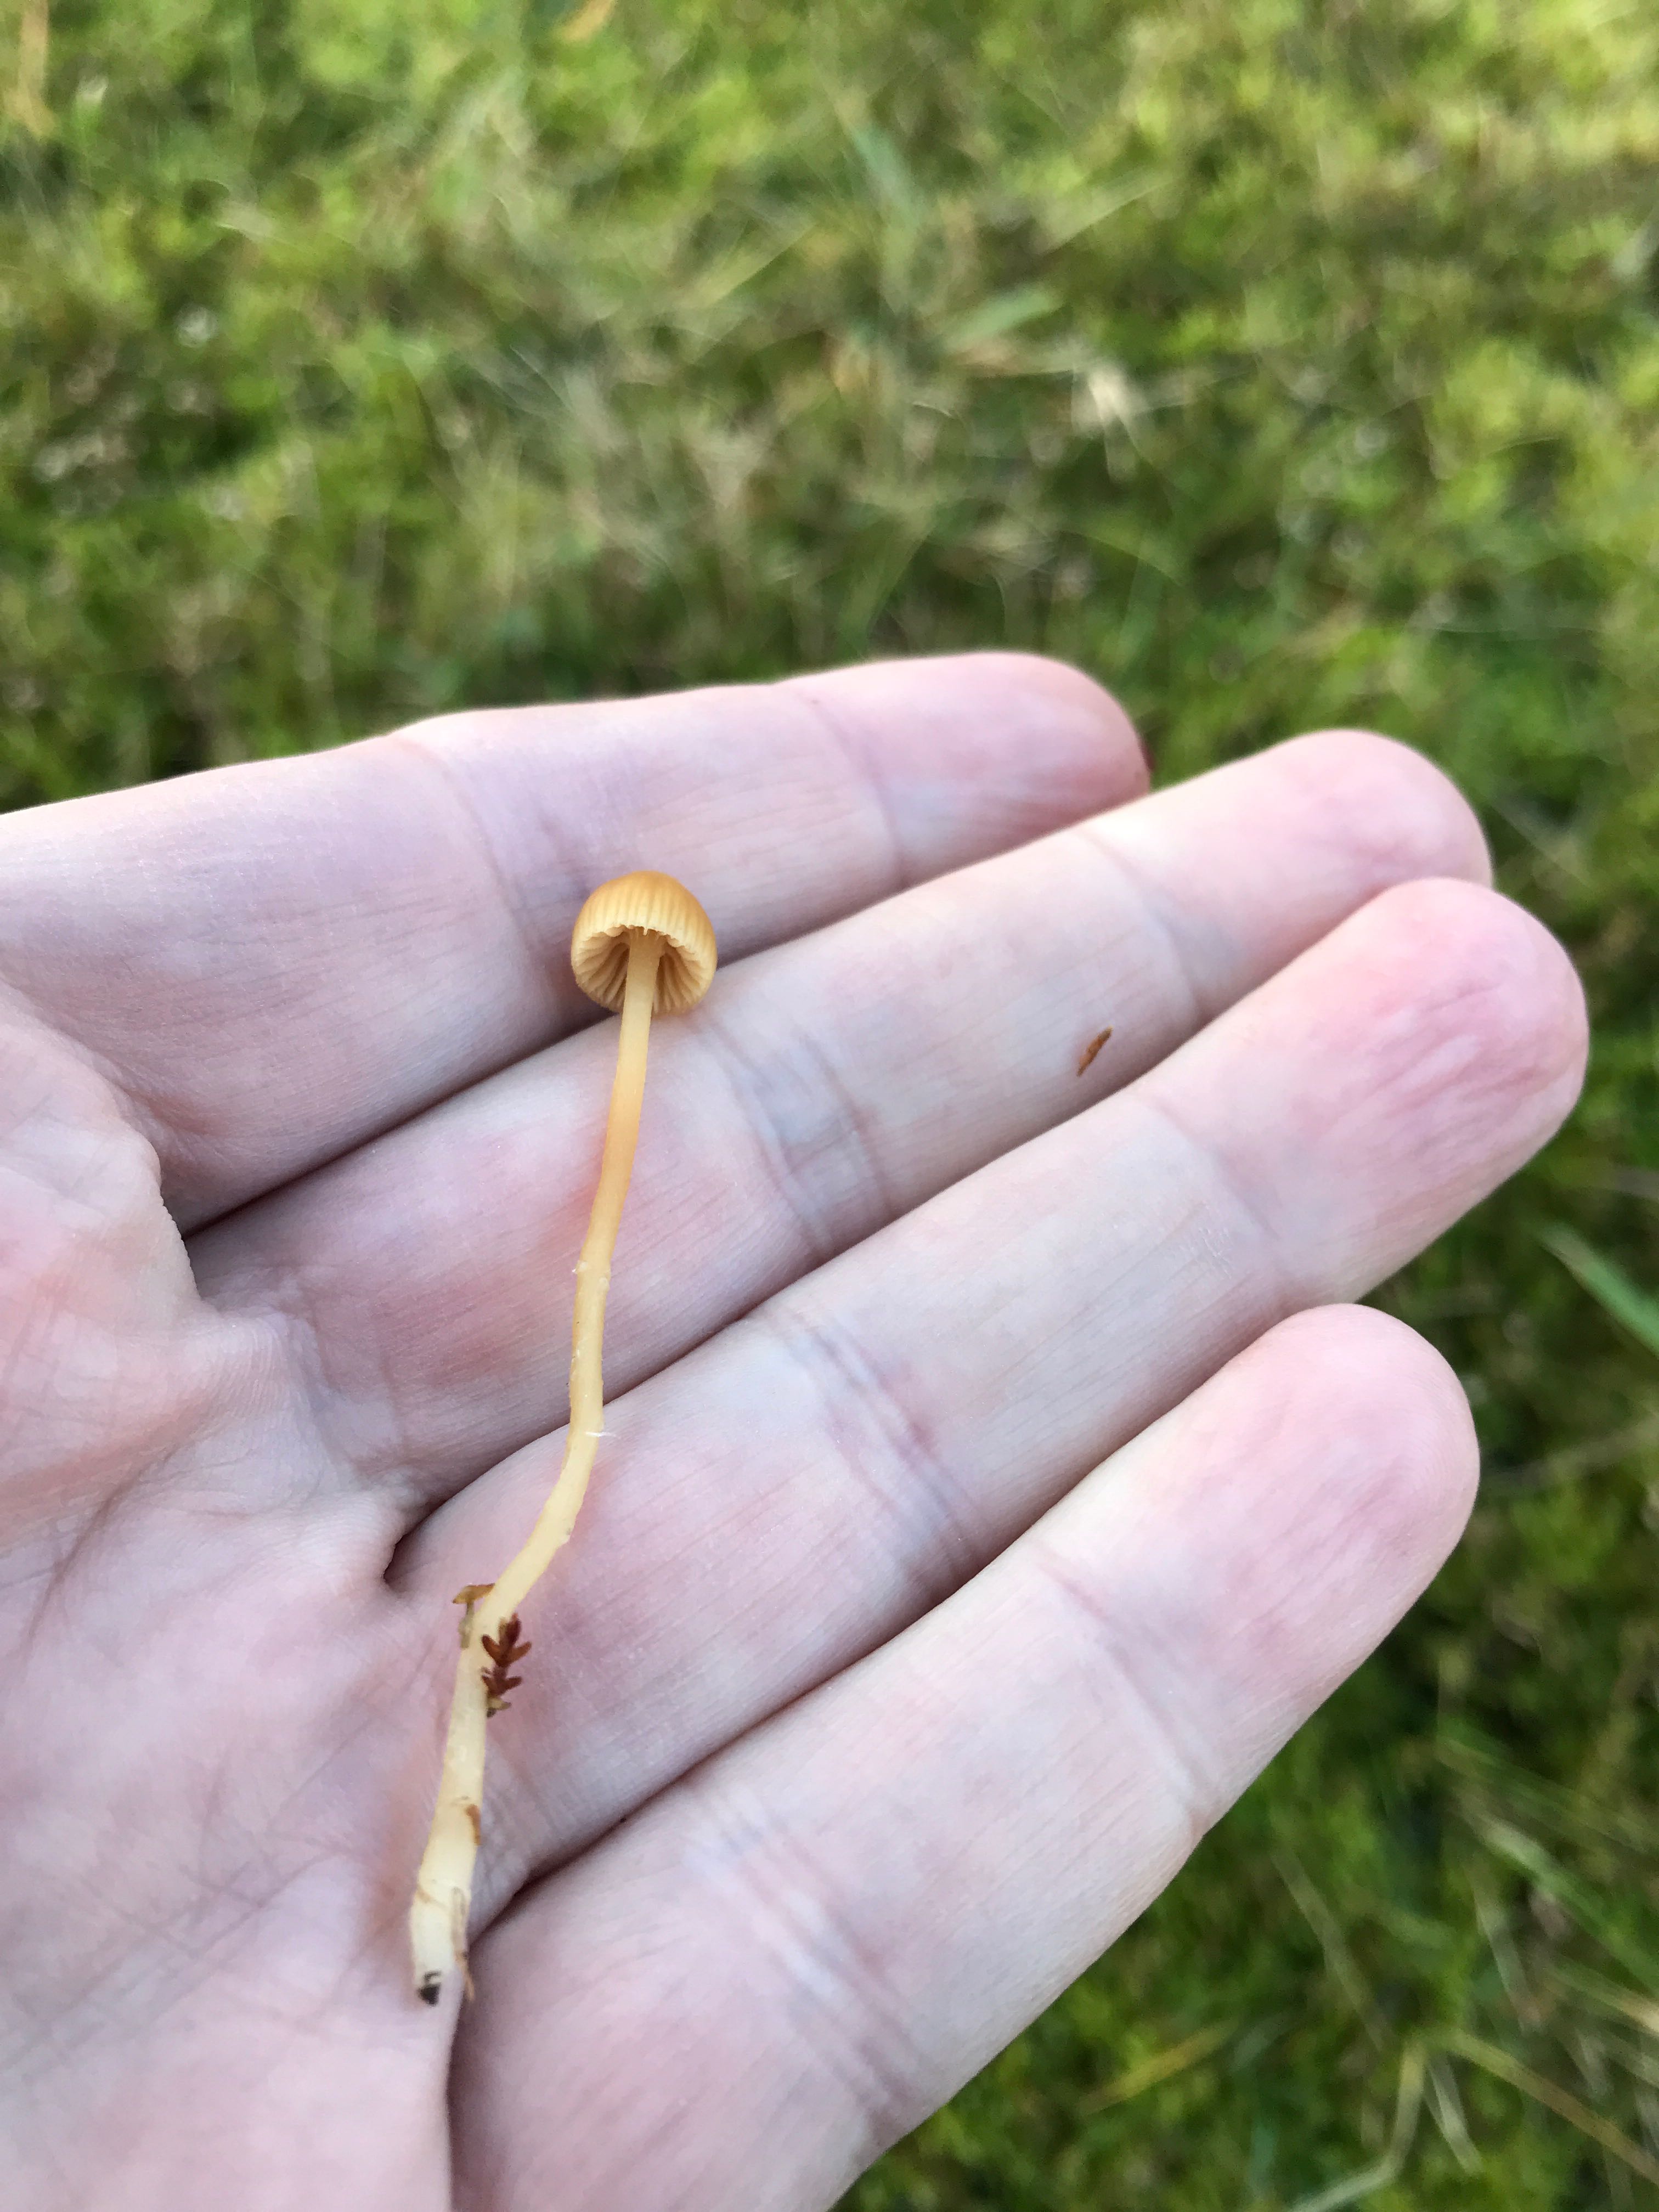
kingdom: Fungi
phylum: Basidiomycota
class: Agaricomycetes
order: Agaricales
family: Hymenogastraceae
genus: Galerina
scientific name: Galerina pumila
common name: honninggul hjelmhat
